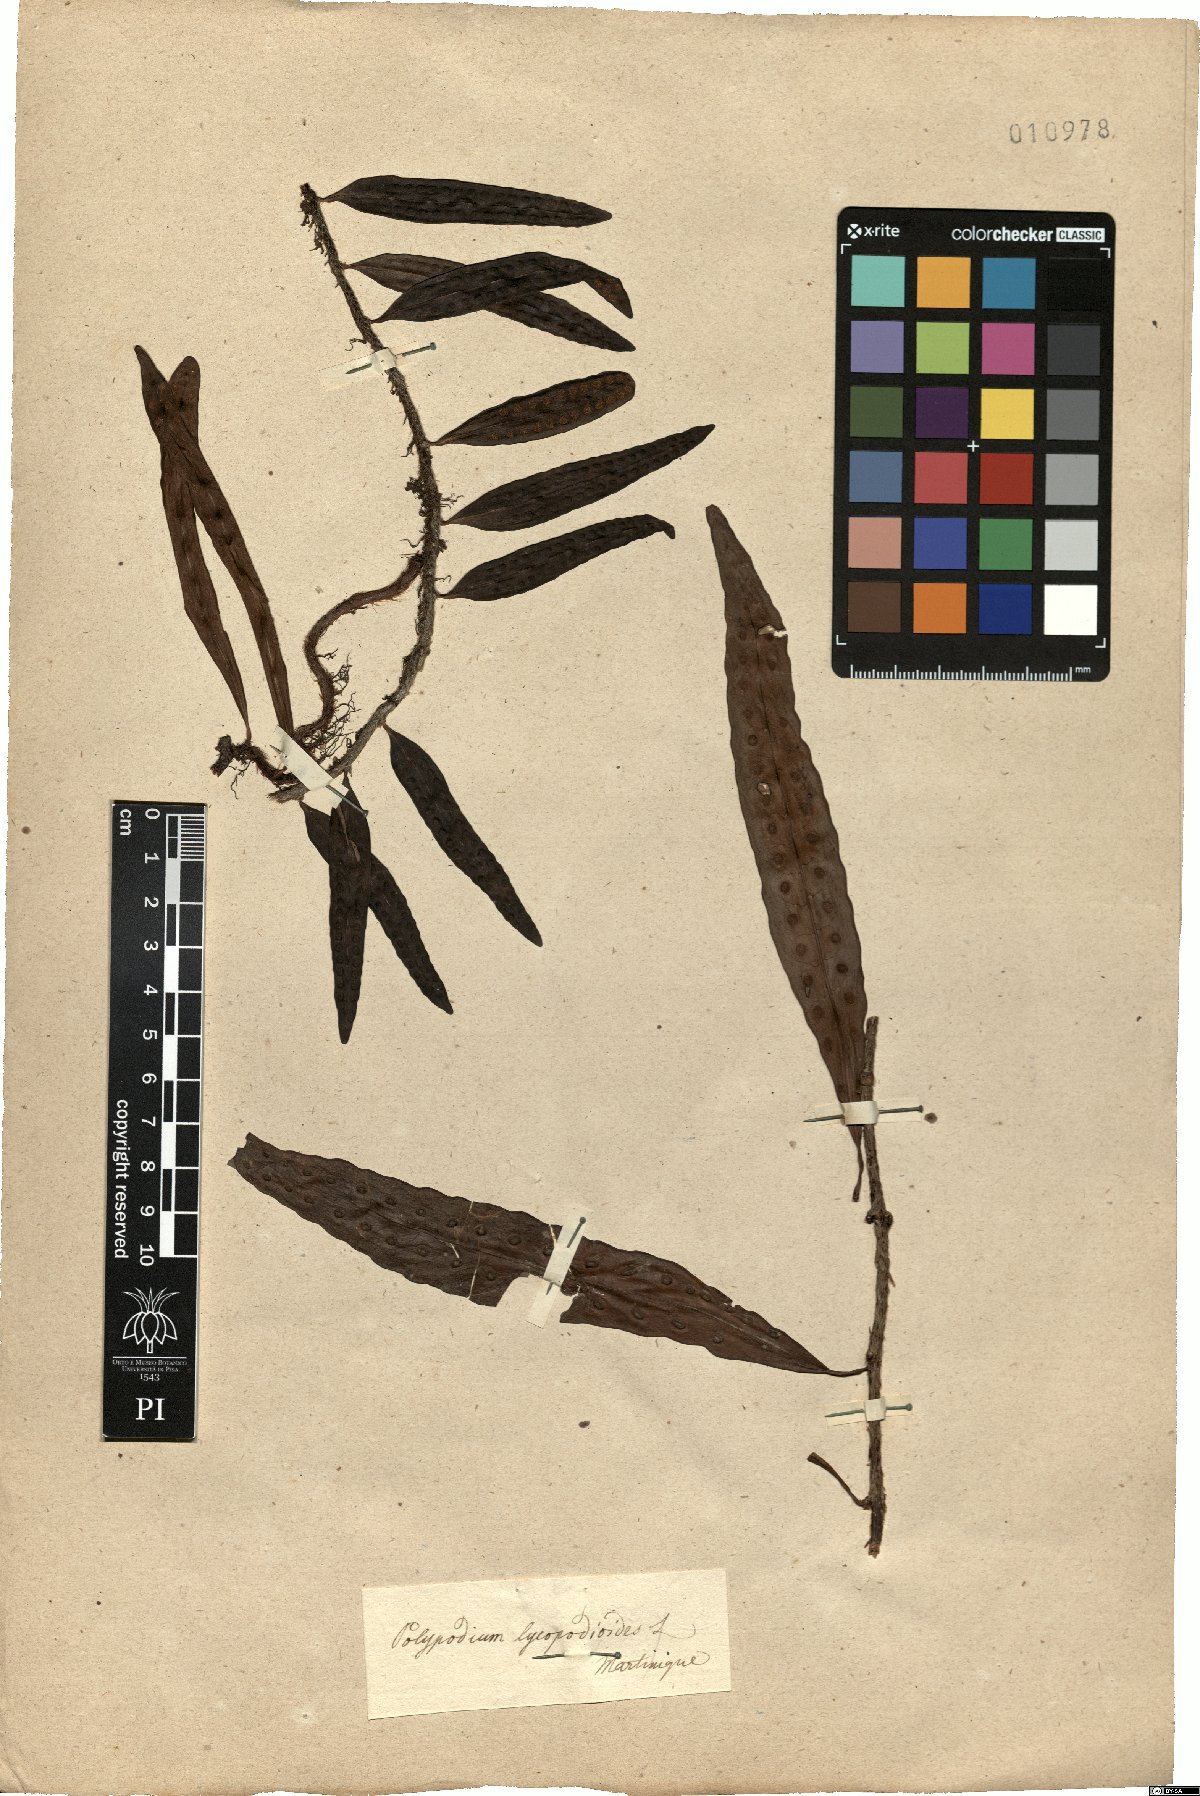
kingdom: Plantae
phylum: Tracheophyta
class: Polypodiopsida
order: Polypodiales
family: Polypodiaceae
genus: Microgramma
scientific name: Microgramma lycopodioides
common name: Bastard catclaw
